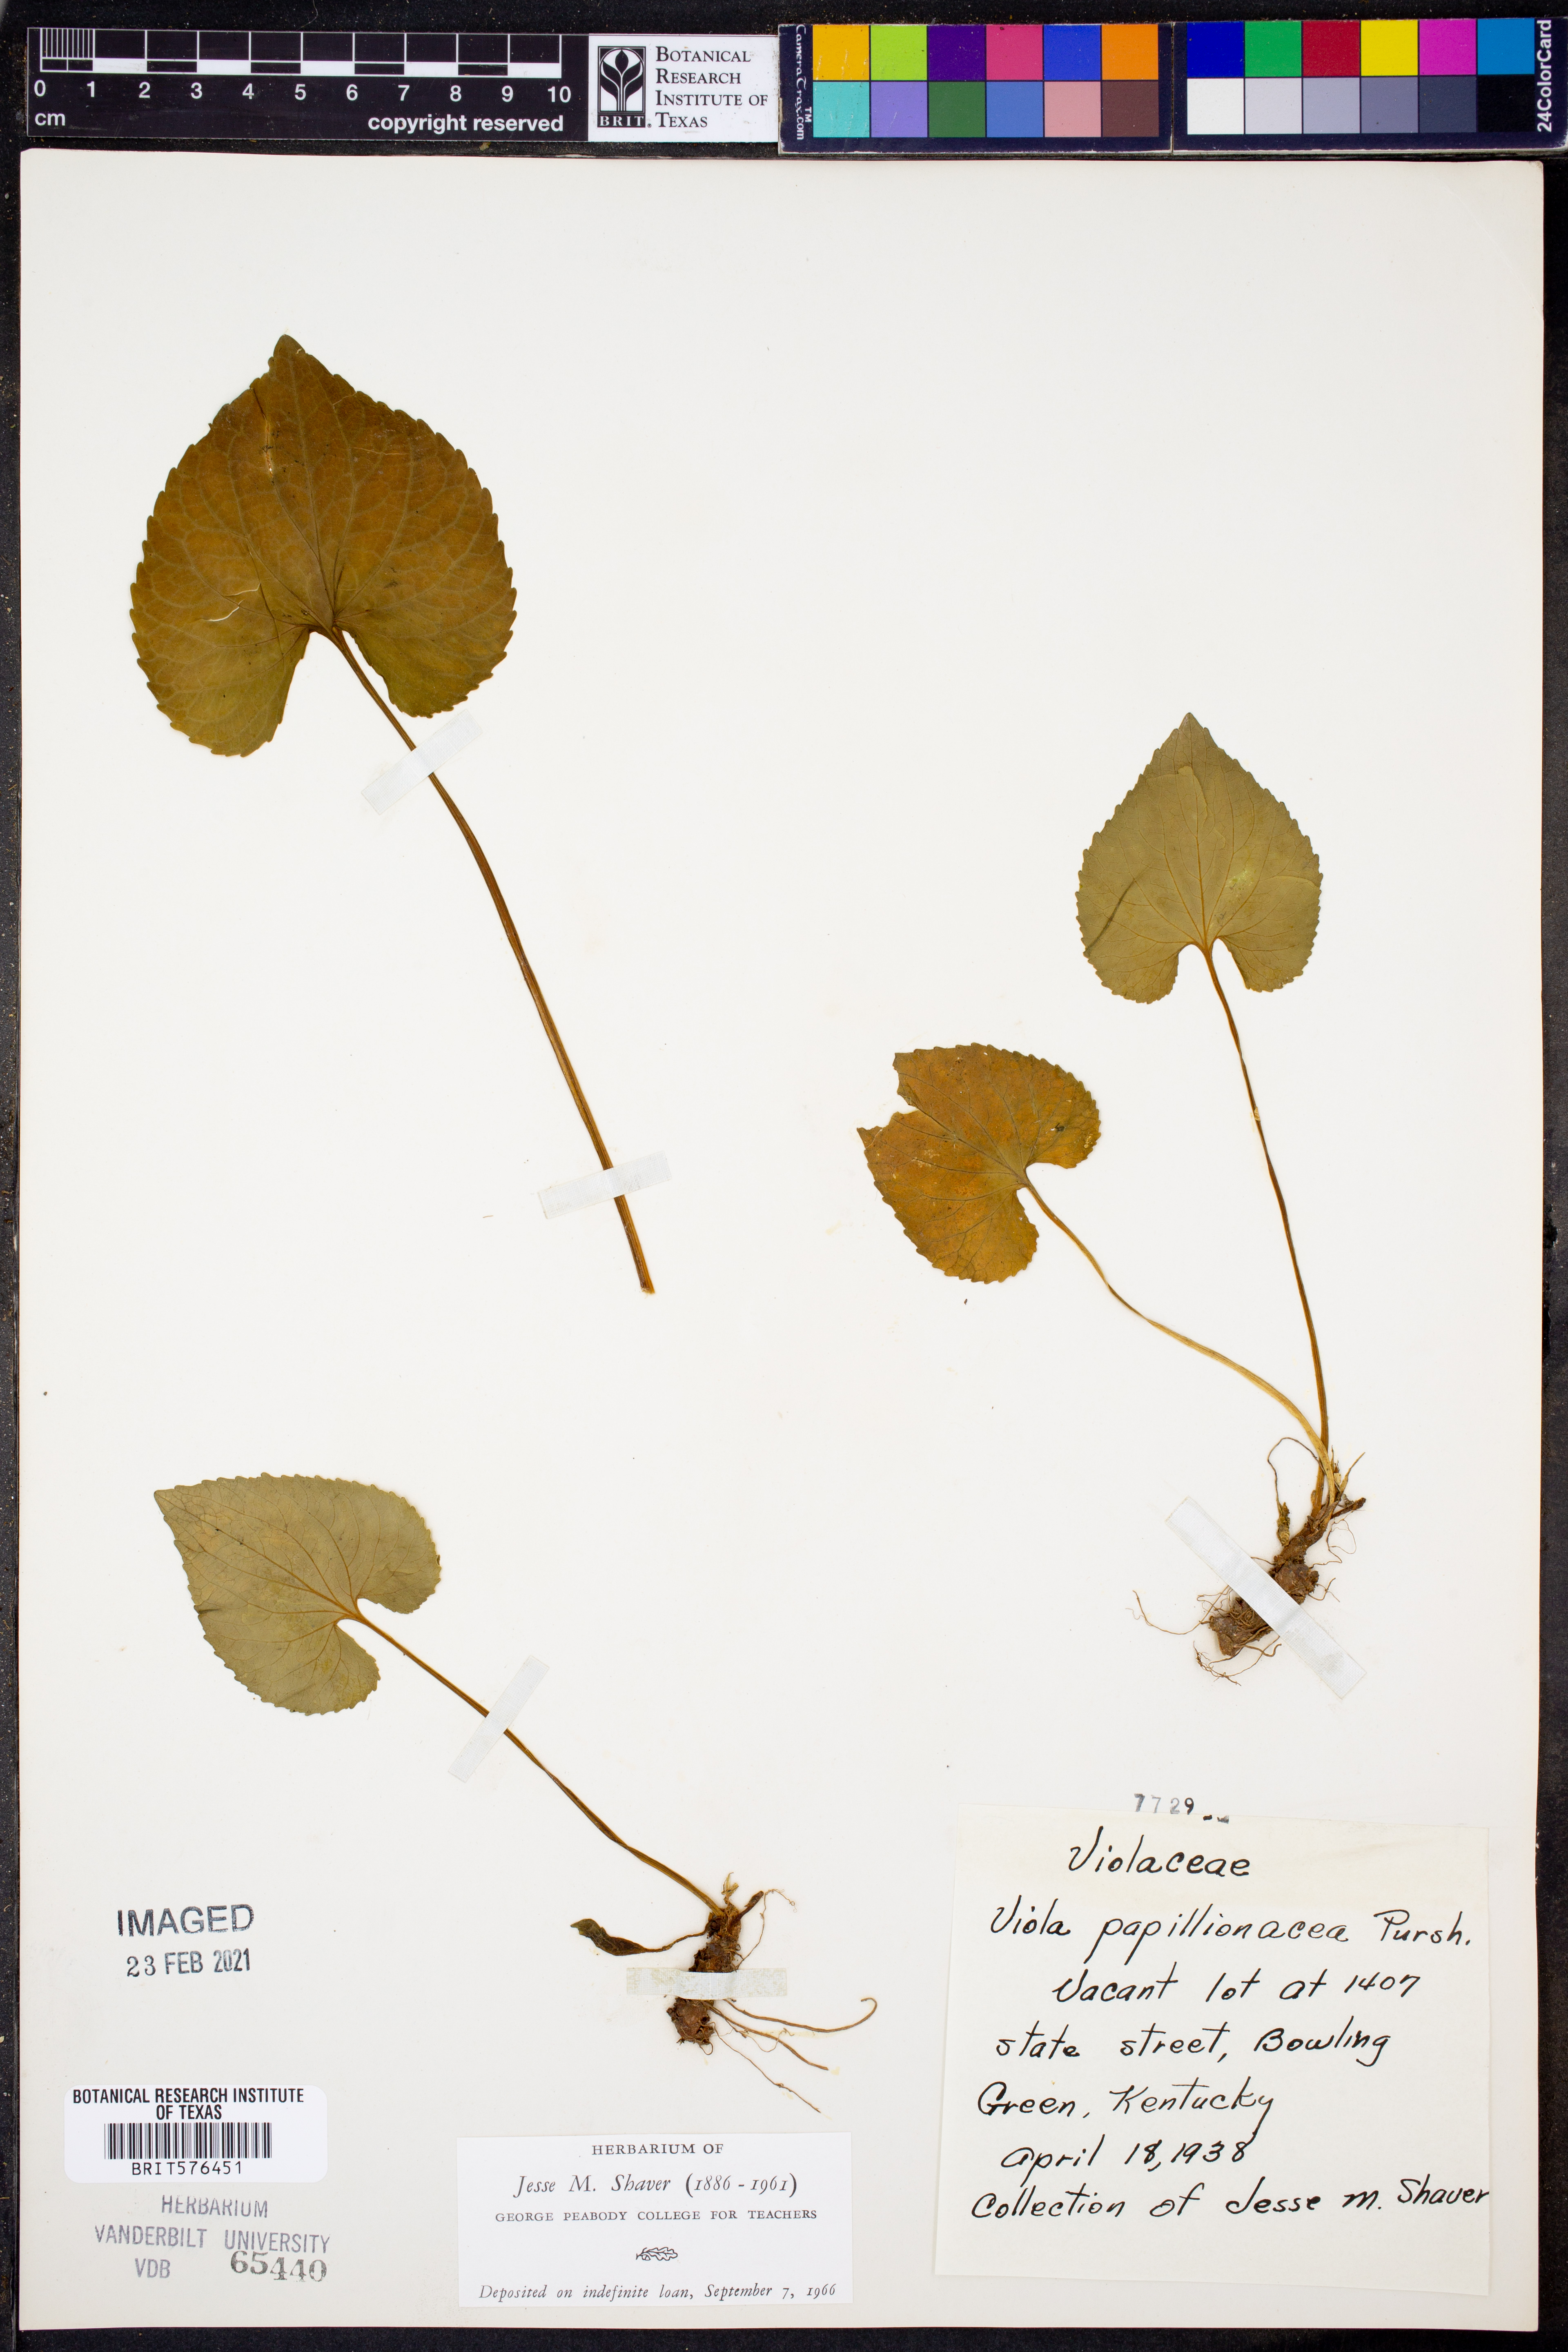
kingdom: Plantae
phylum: Tracheophyta
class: Magnoliopsida
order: Malpighiales
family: Violaceae
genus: Viola
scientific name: Viola sororia
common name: Dooryard violet
